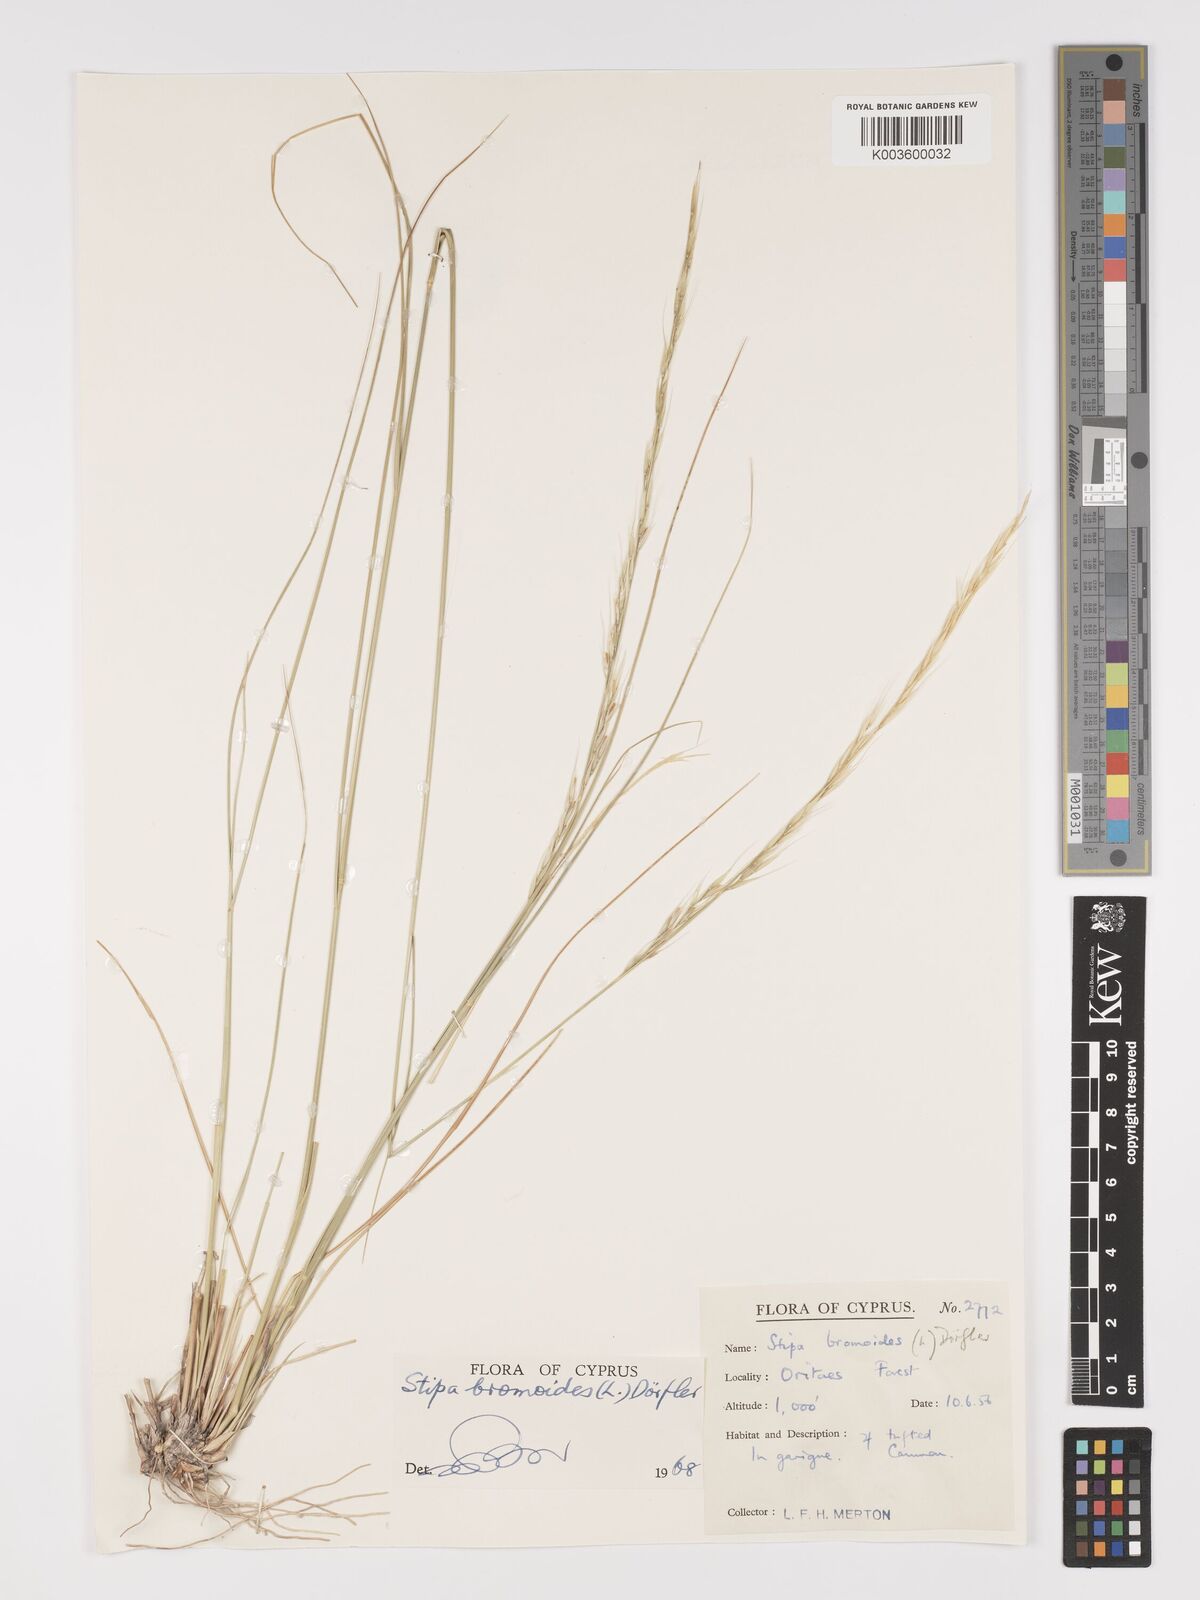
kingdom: Plantae
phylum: Tracheophyta
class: Liliopsida
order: Poales
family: Poaceae
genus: Achnatherum
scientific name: Achnatherum bromoides
